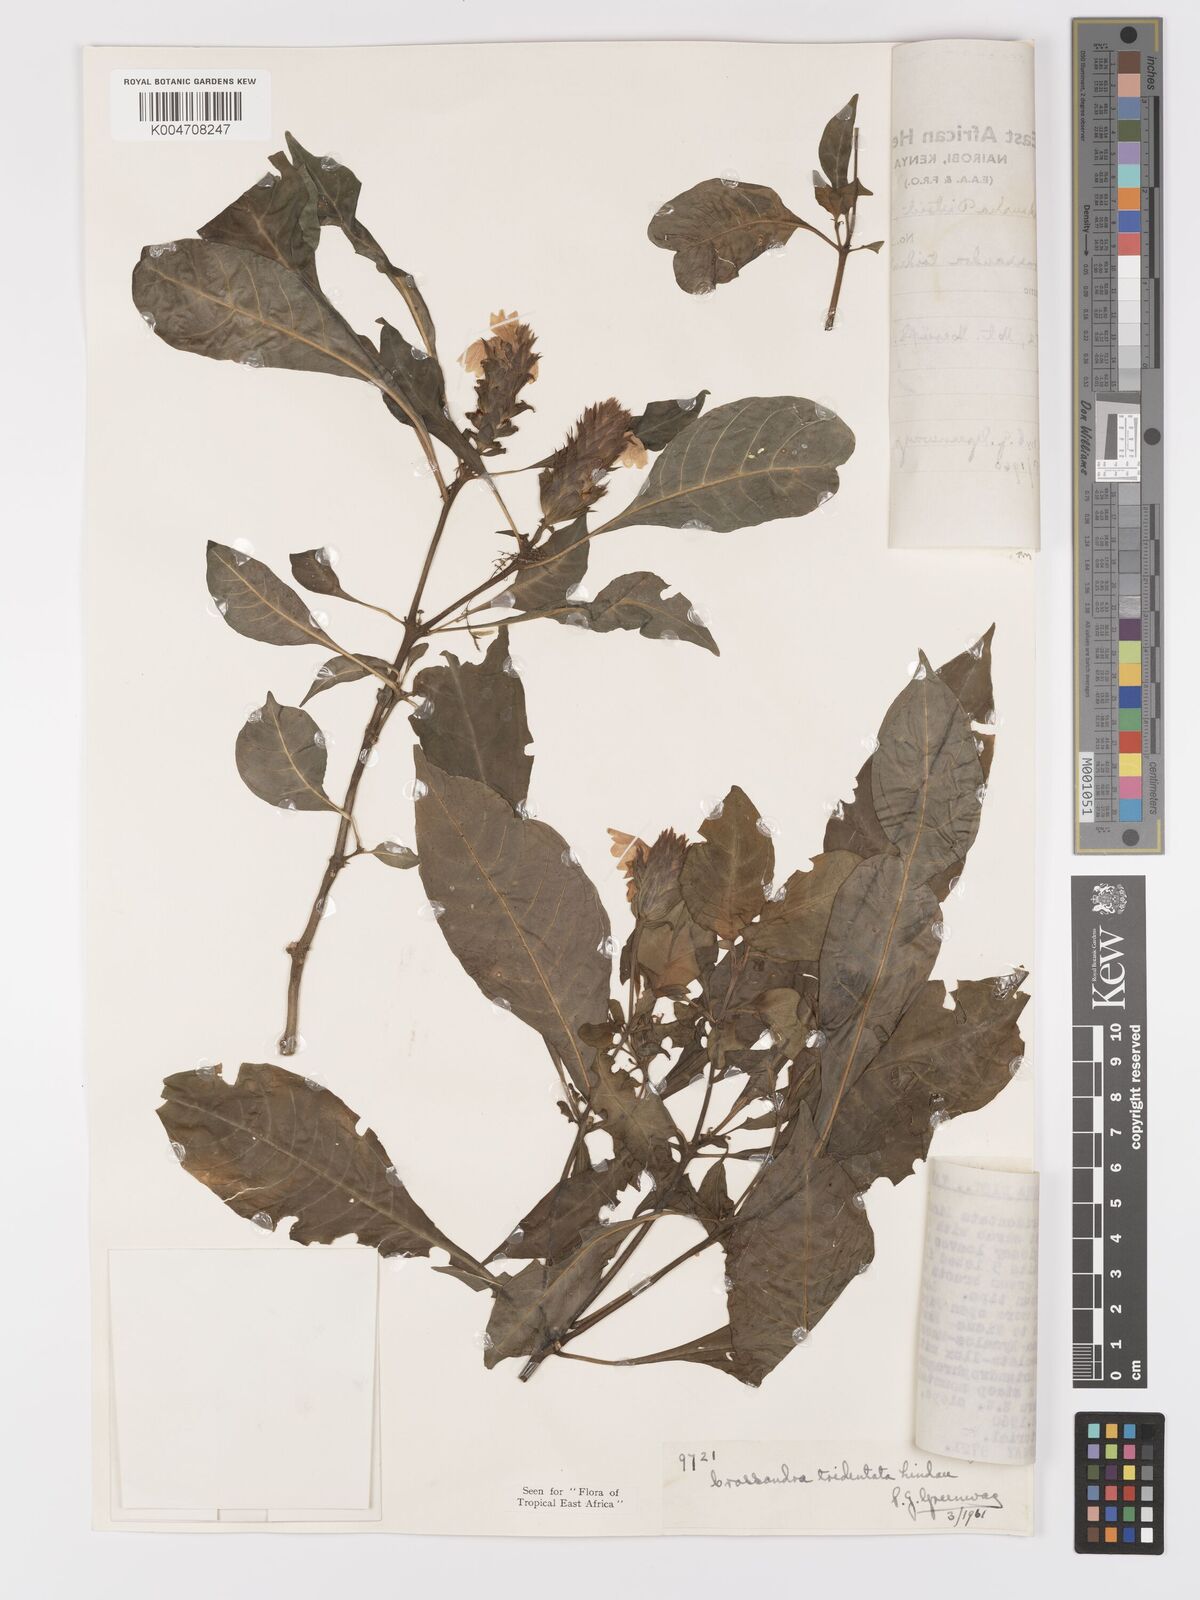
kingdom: Plantae
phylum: Tracheophyta
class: Magnoliopsida
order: Lamiales
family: Acanthaceae
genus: Crossandra
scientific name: Crossandra tridentata
